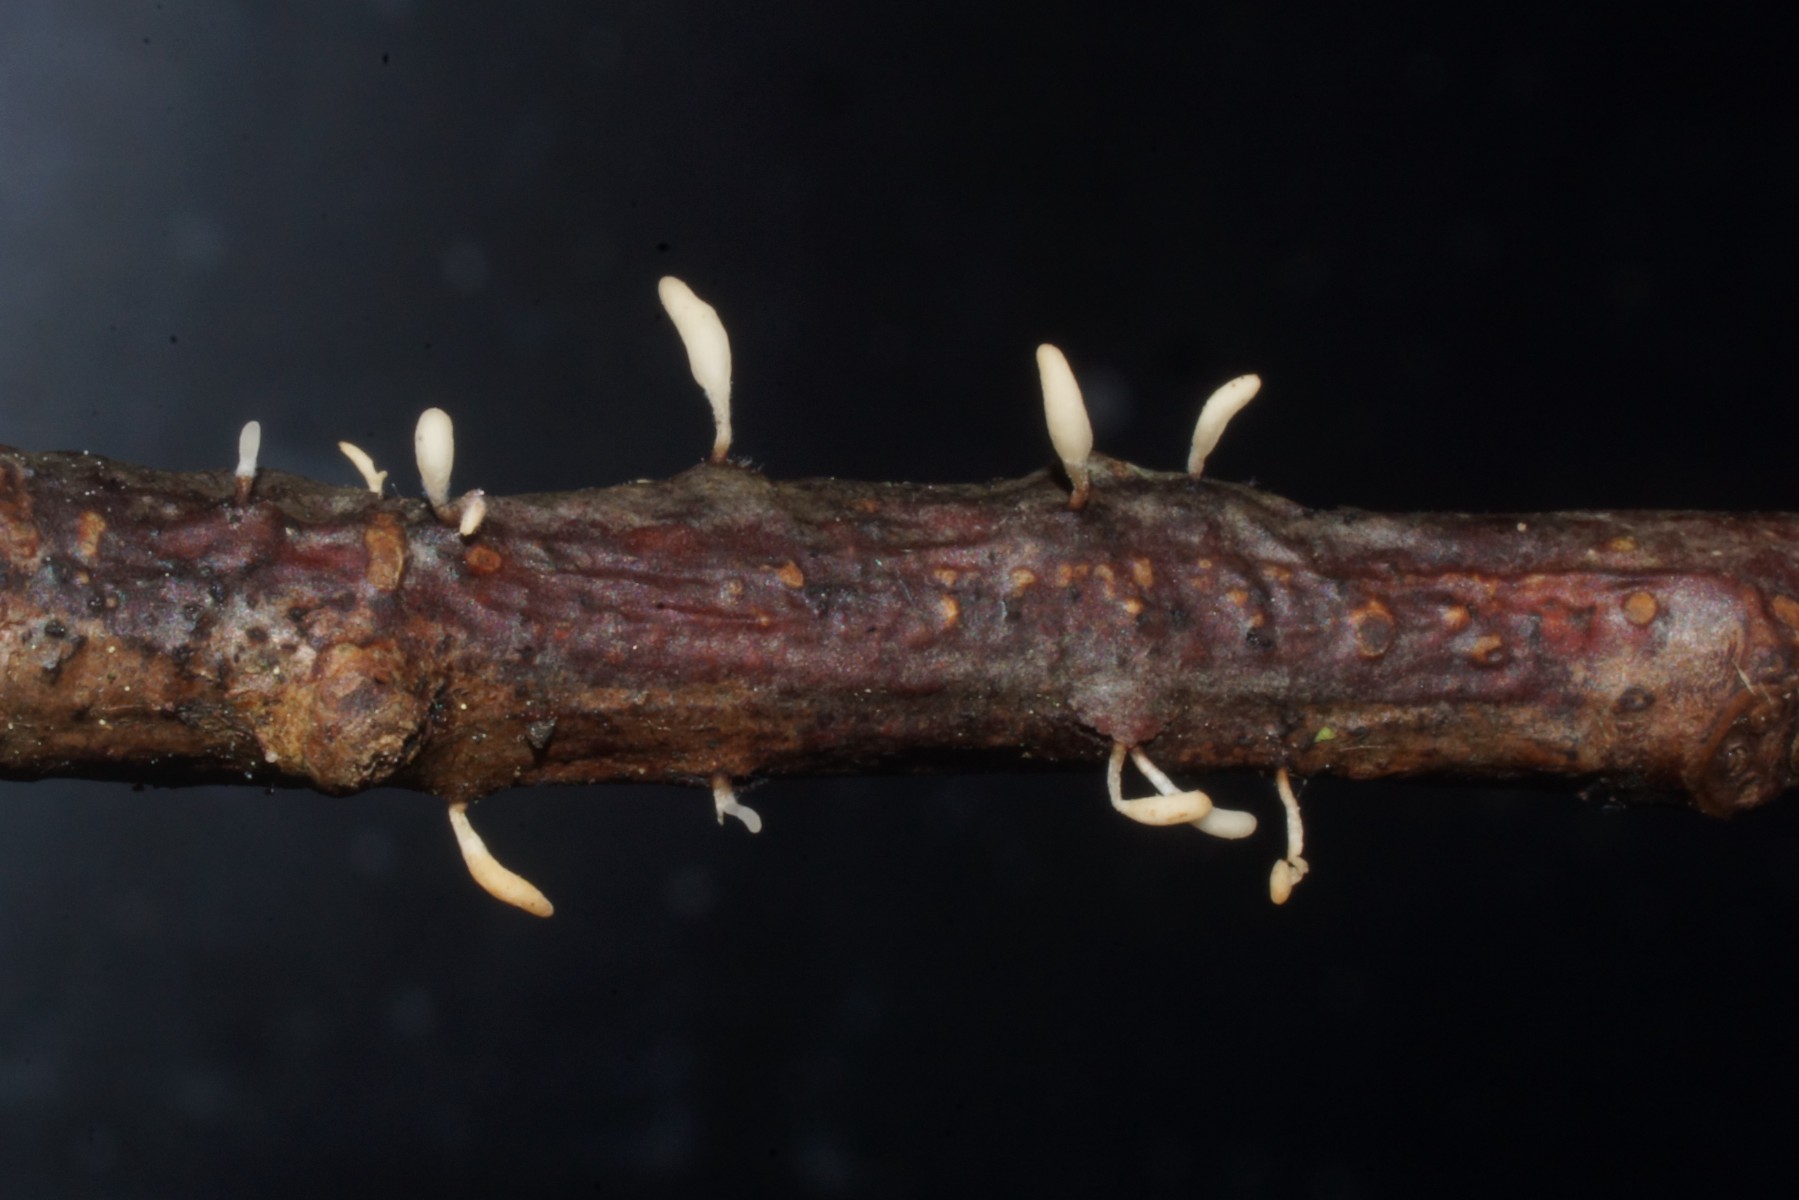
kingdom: Fungi
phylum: Basidiomycota
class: Agaricomycetes
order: Agaricales
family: Typhulaceae
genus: Typhula
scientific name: Typhula spathulata
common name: aske-trådkølle
